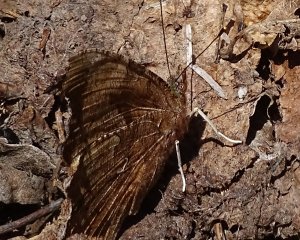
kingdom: Animalia
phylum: Arthropoda
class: Insecta
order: Lepidoptera
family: Nymphalidae
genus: Polygonia
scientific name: Polygonia comma
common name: Eastern Comma
